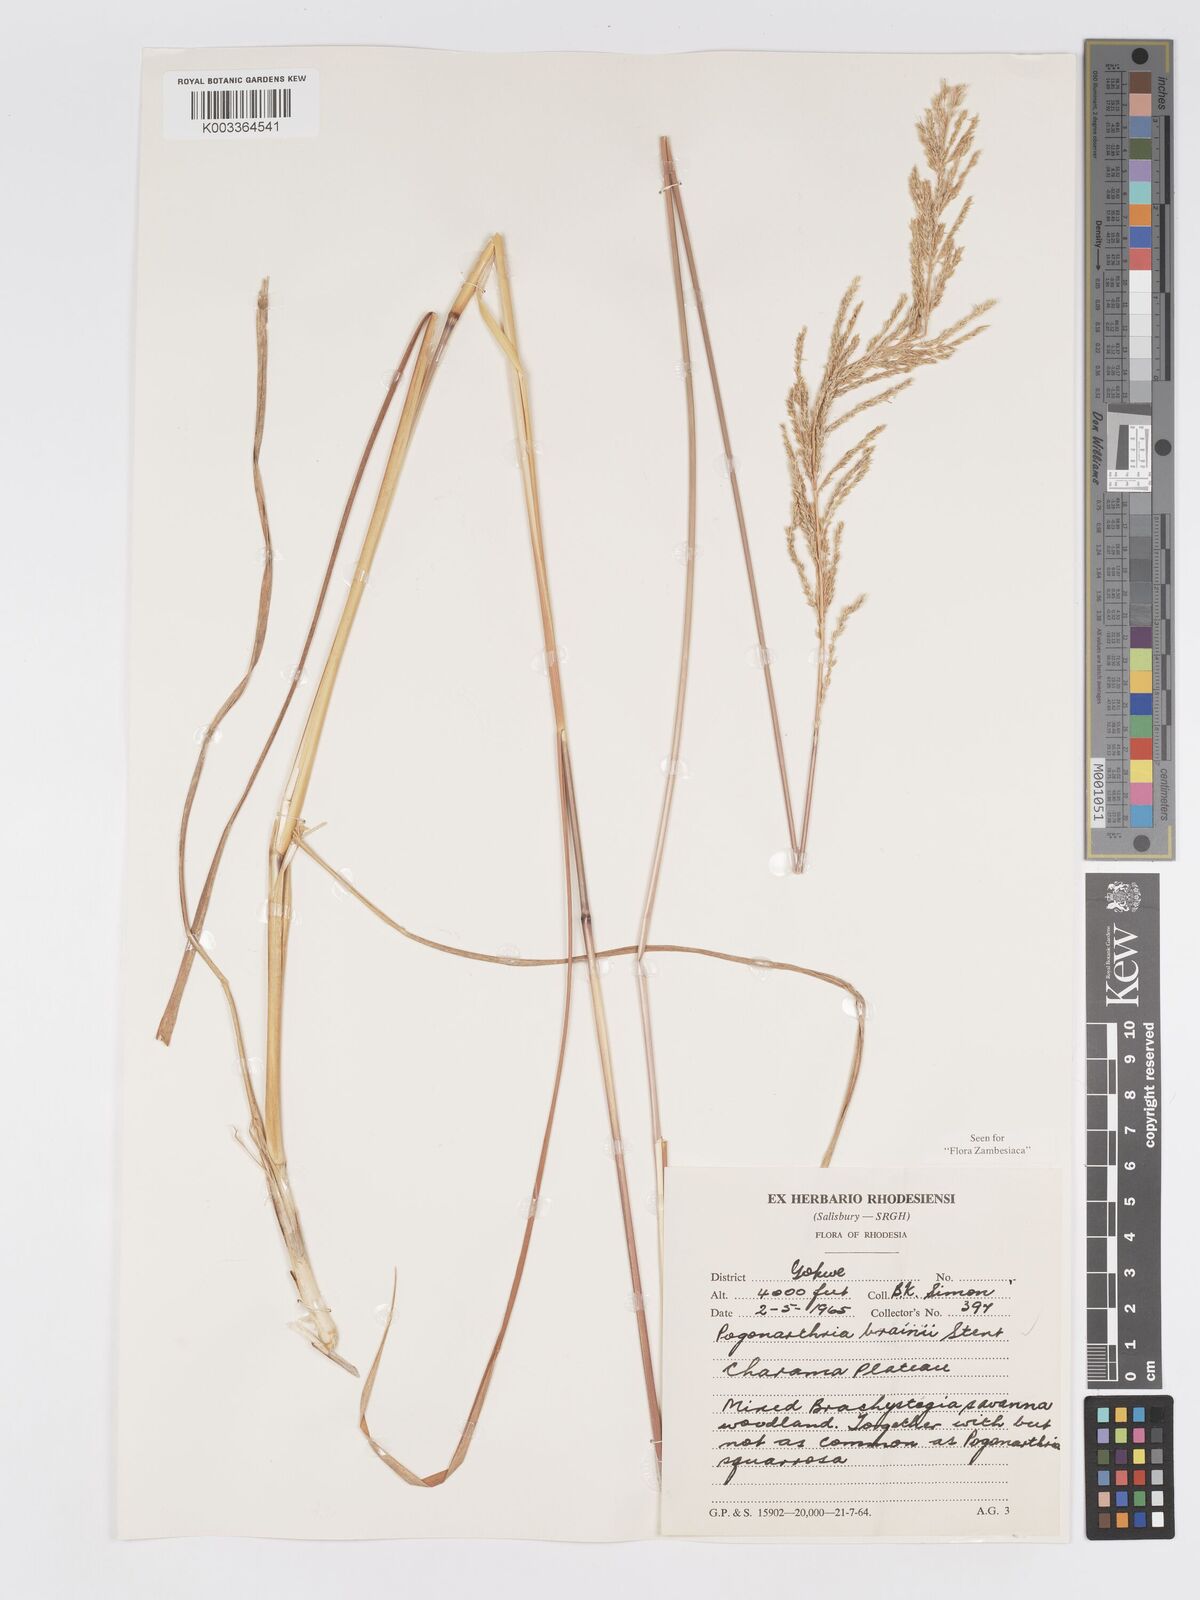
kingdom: Plantae
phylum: Tracheophyta
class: Liliopsida
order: Poales
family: Poaceae
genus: Eragrostis
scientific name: Eragrostis brainii
